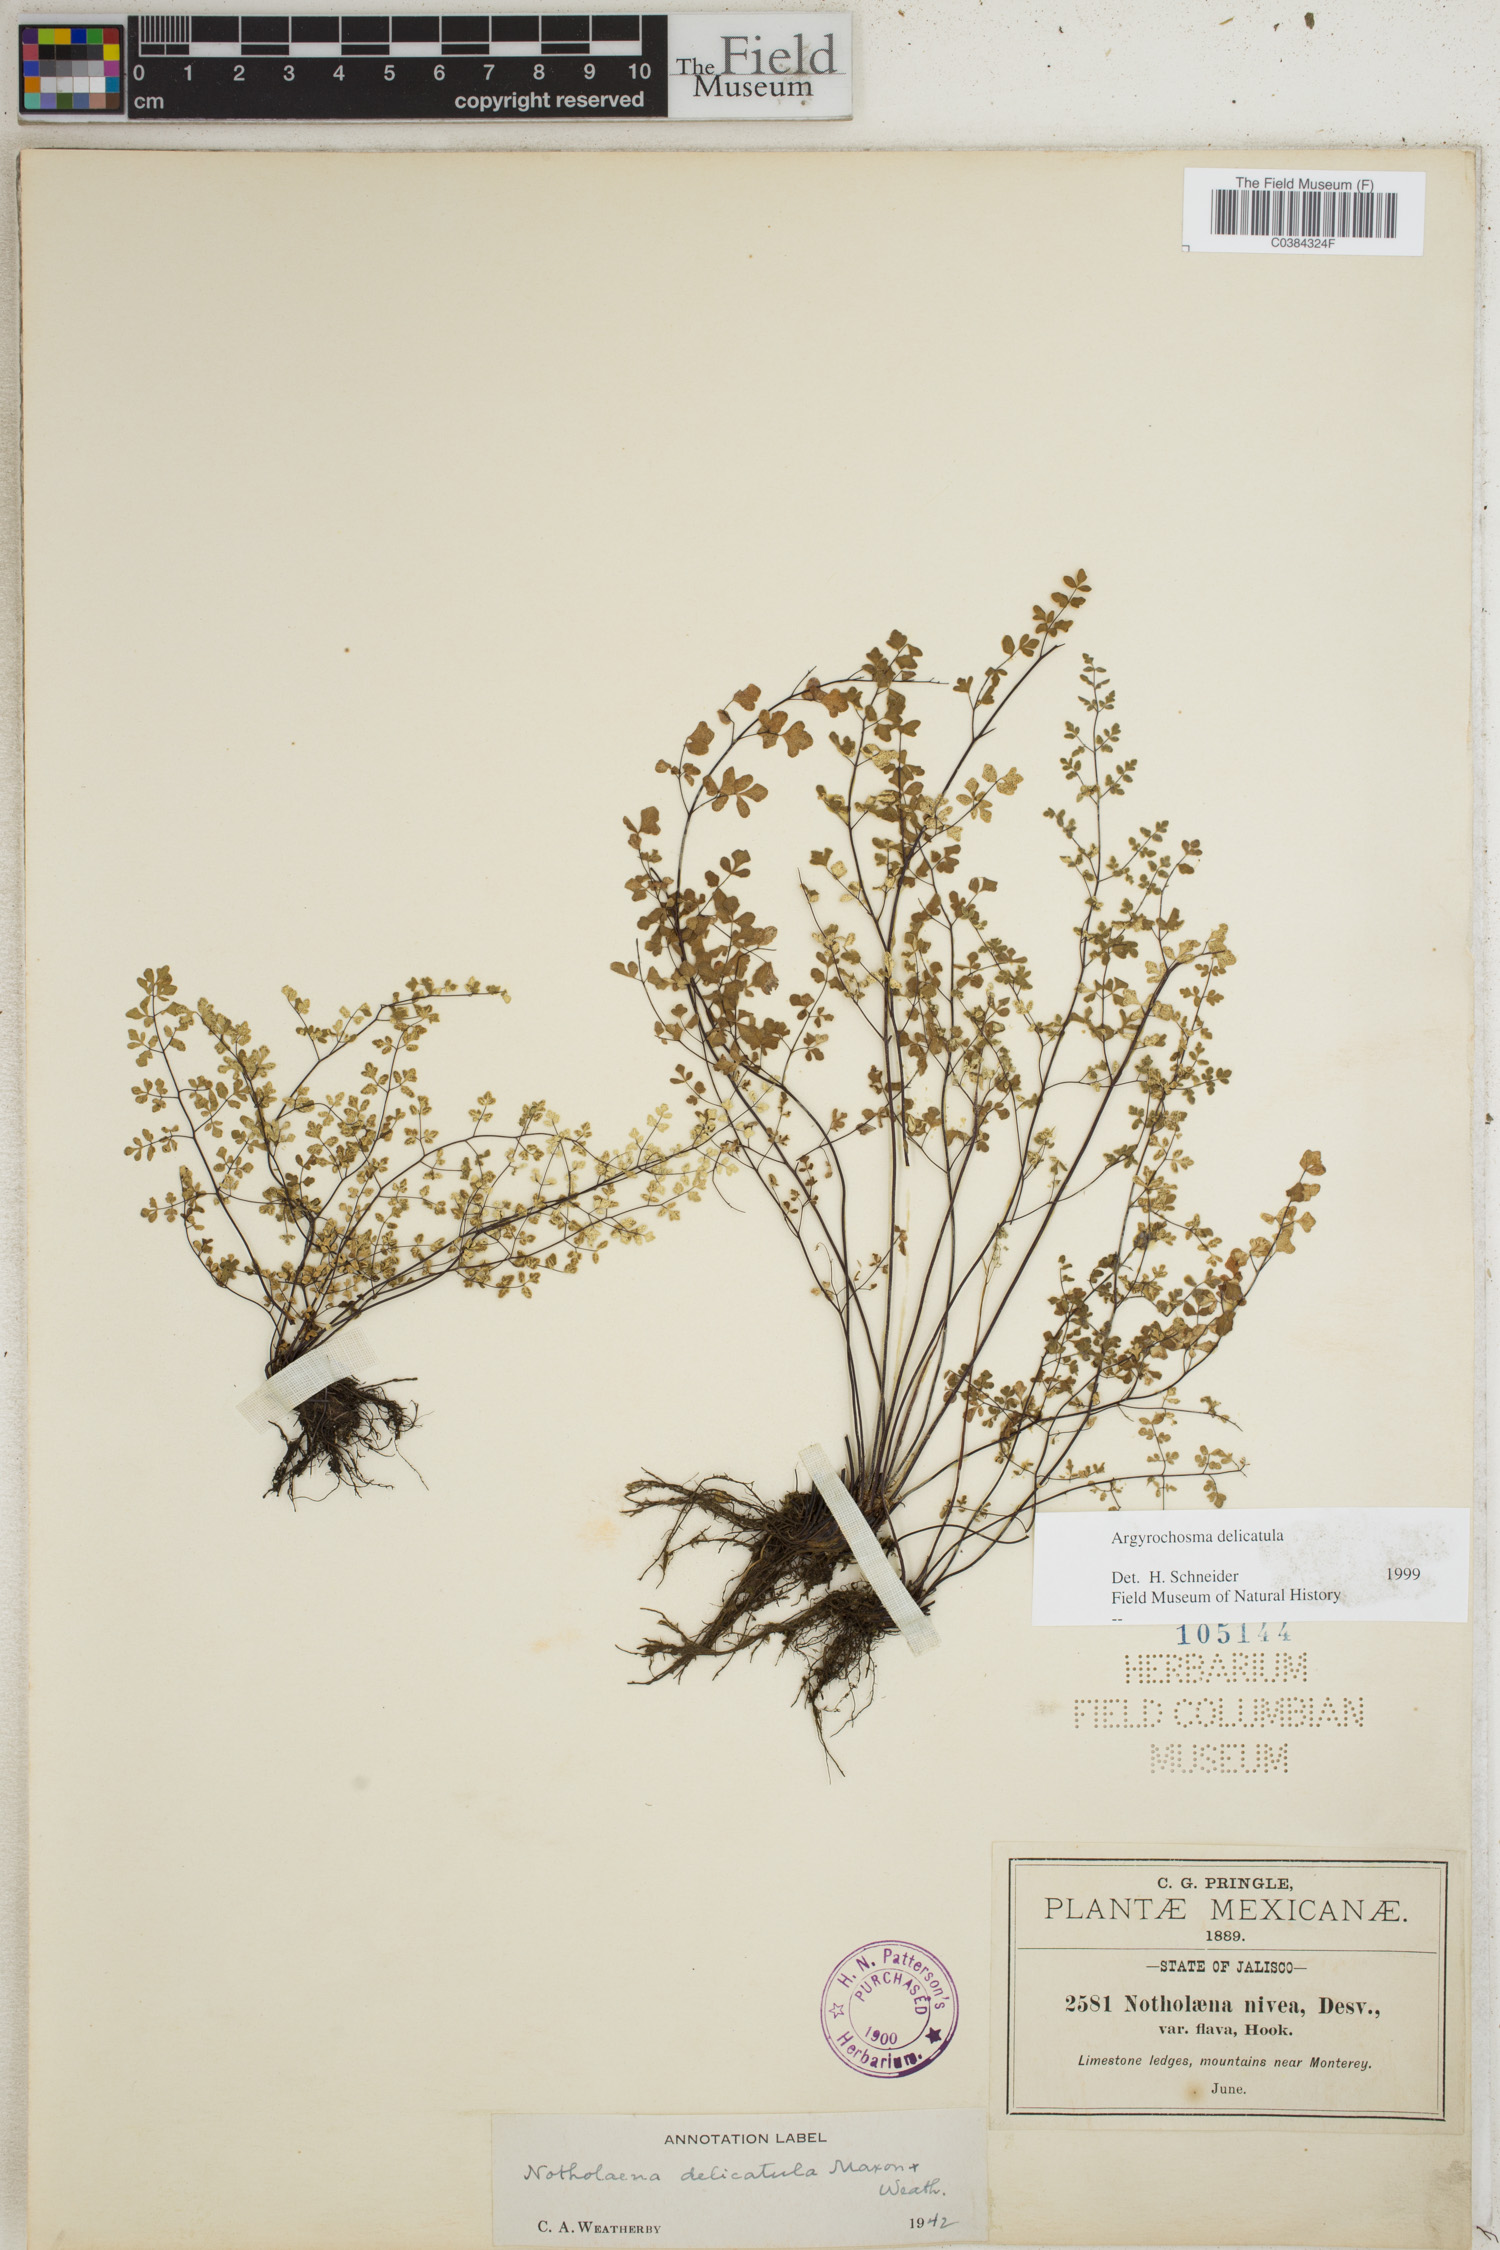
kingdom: Plantae
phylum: Tracheophyta
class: Polypodiopsida
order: Polypodiales
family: Pteridaceae
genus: Argyrochosma
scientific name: Argyrochosma delicatula
